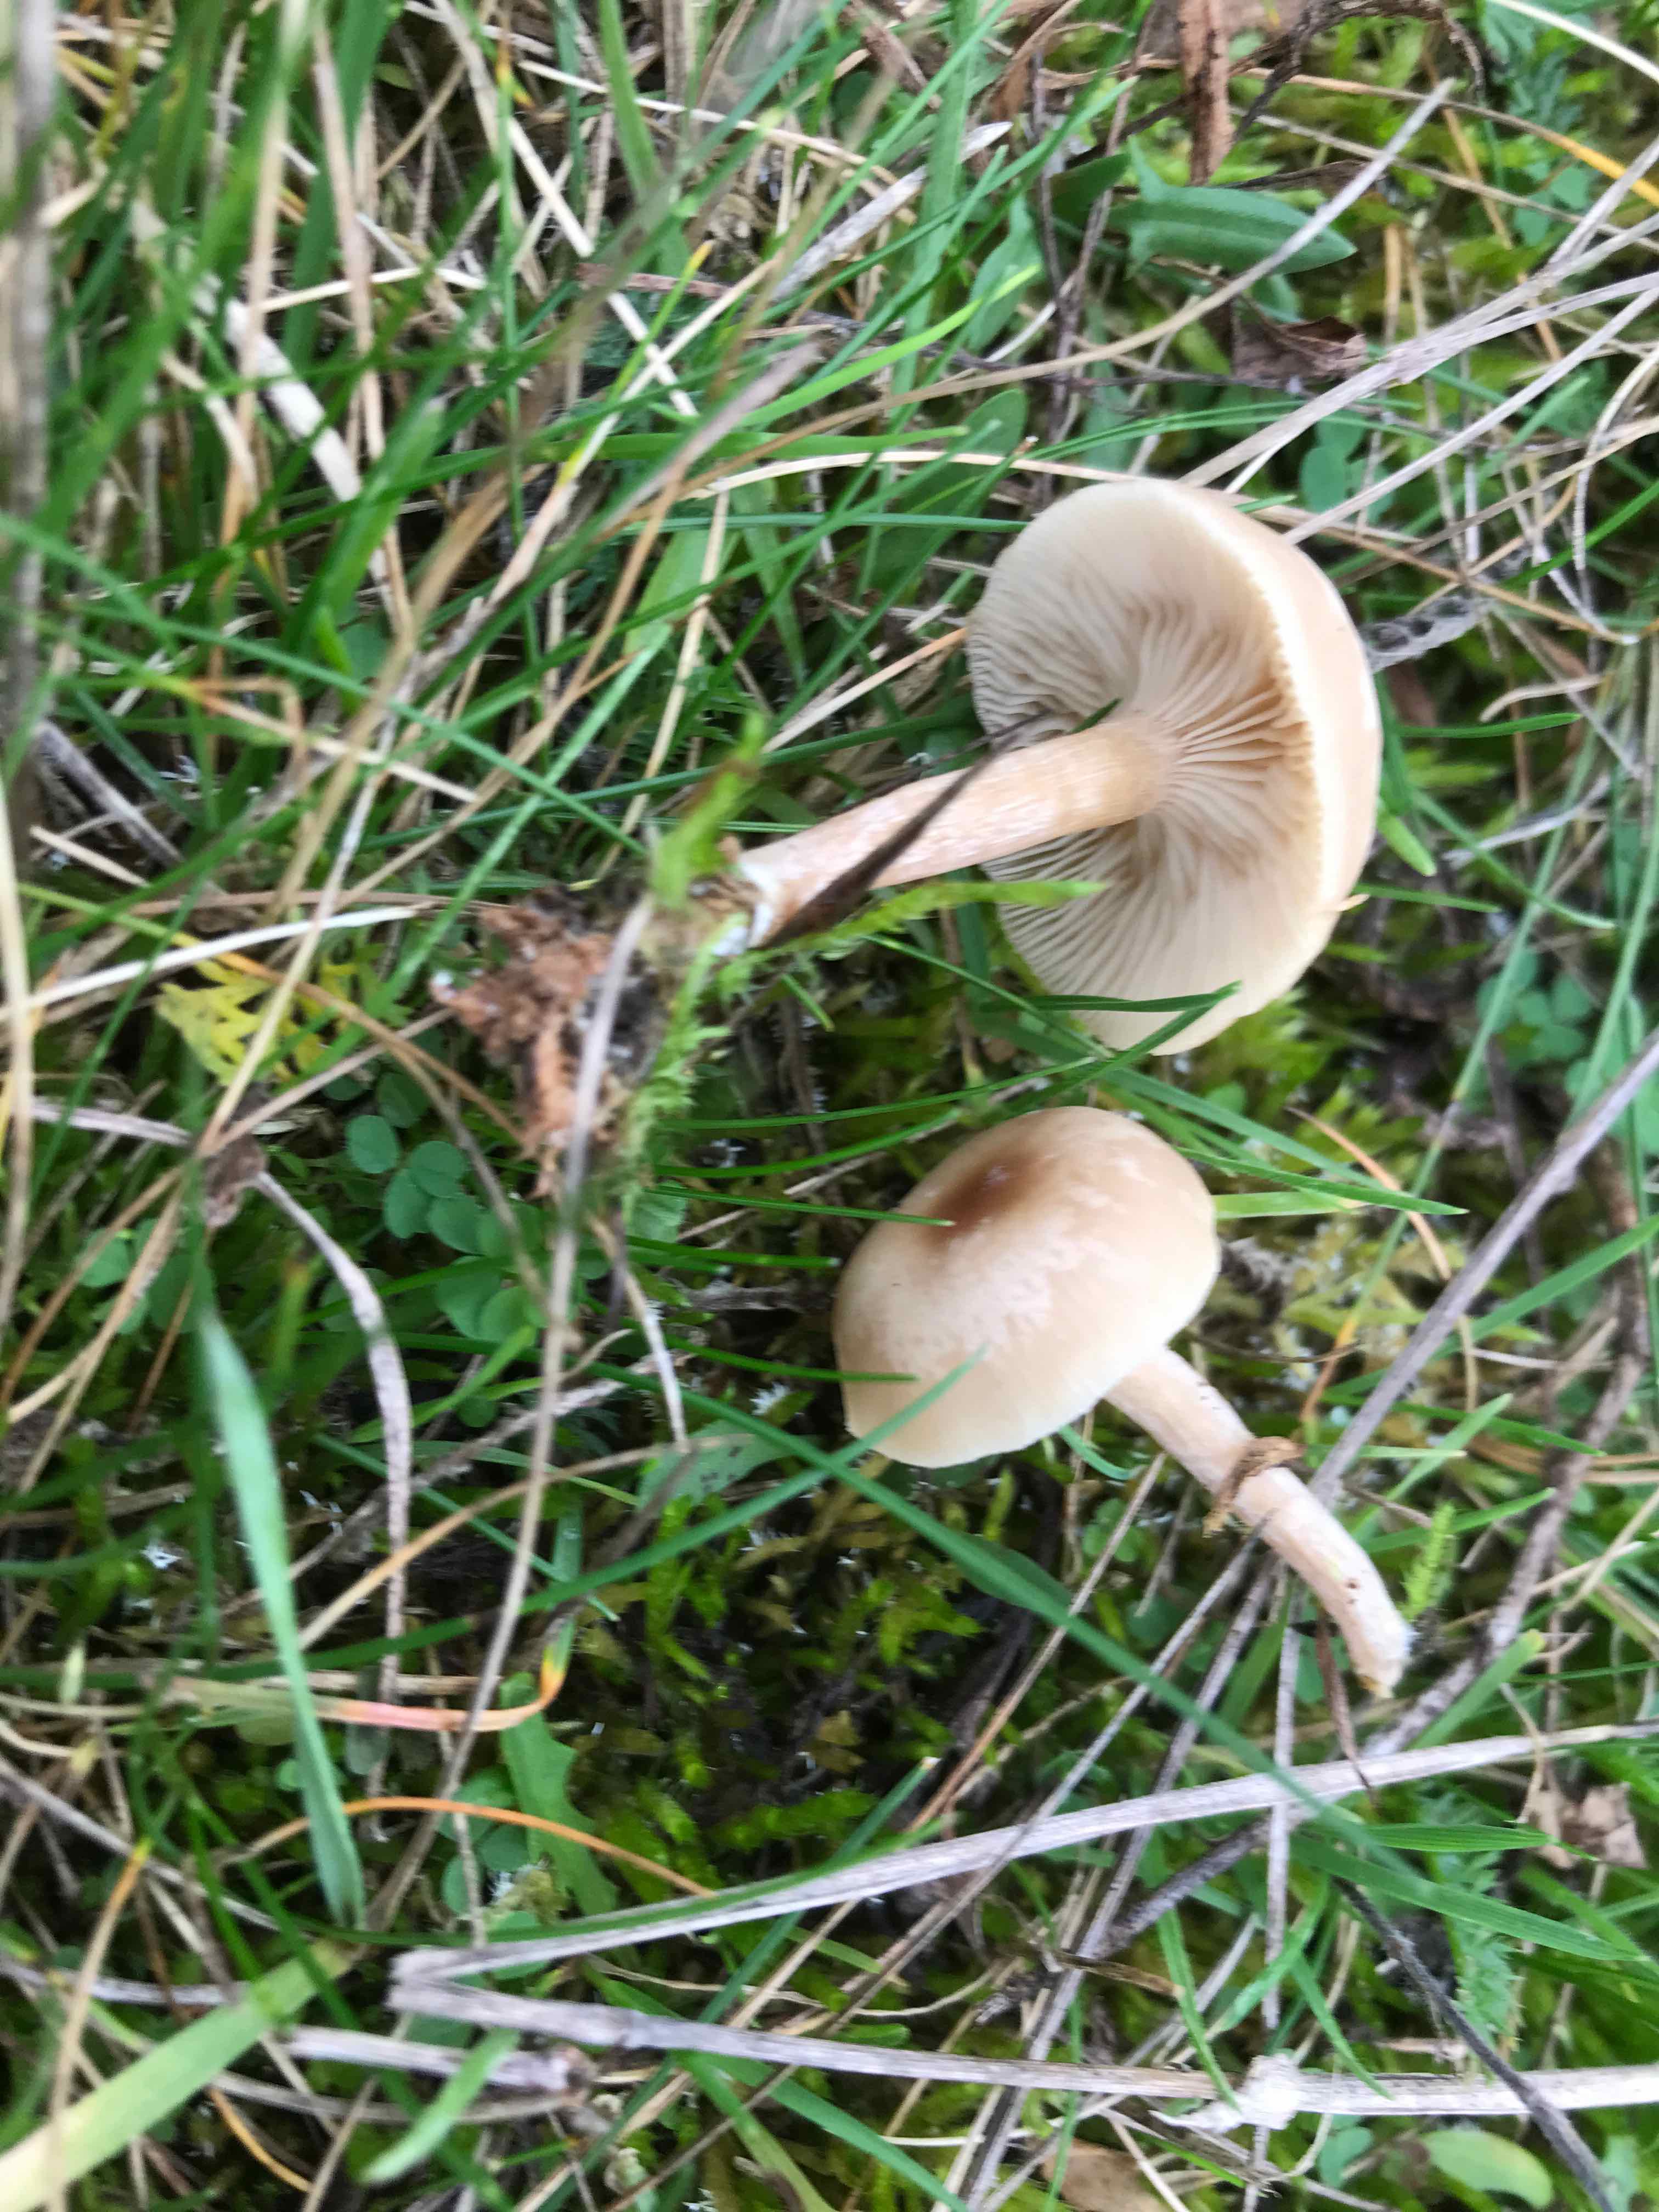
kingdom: Fungi
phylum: Basidiomycota
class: Agaricomycetes
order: Agaricales
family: Tricholomataceae
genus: Clitocybe
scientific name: Clitocybe
